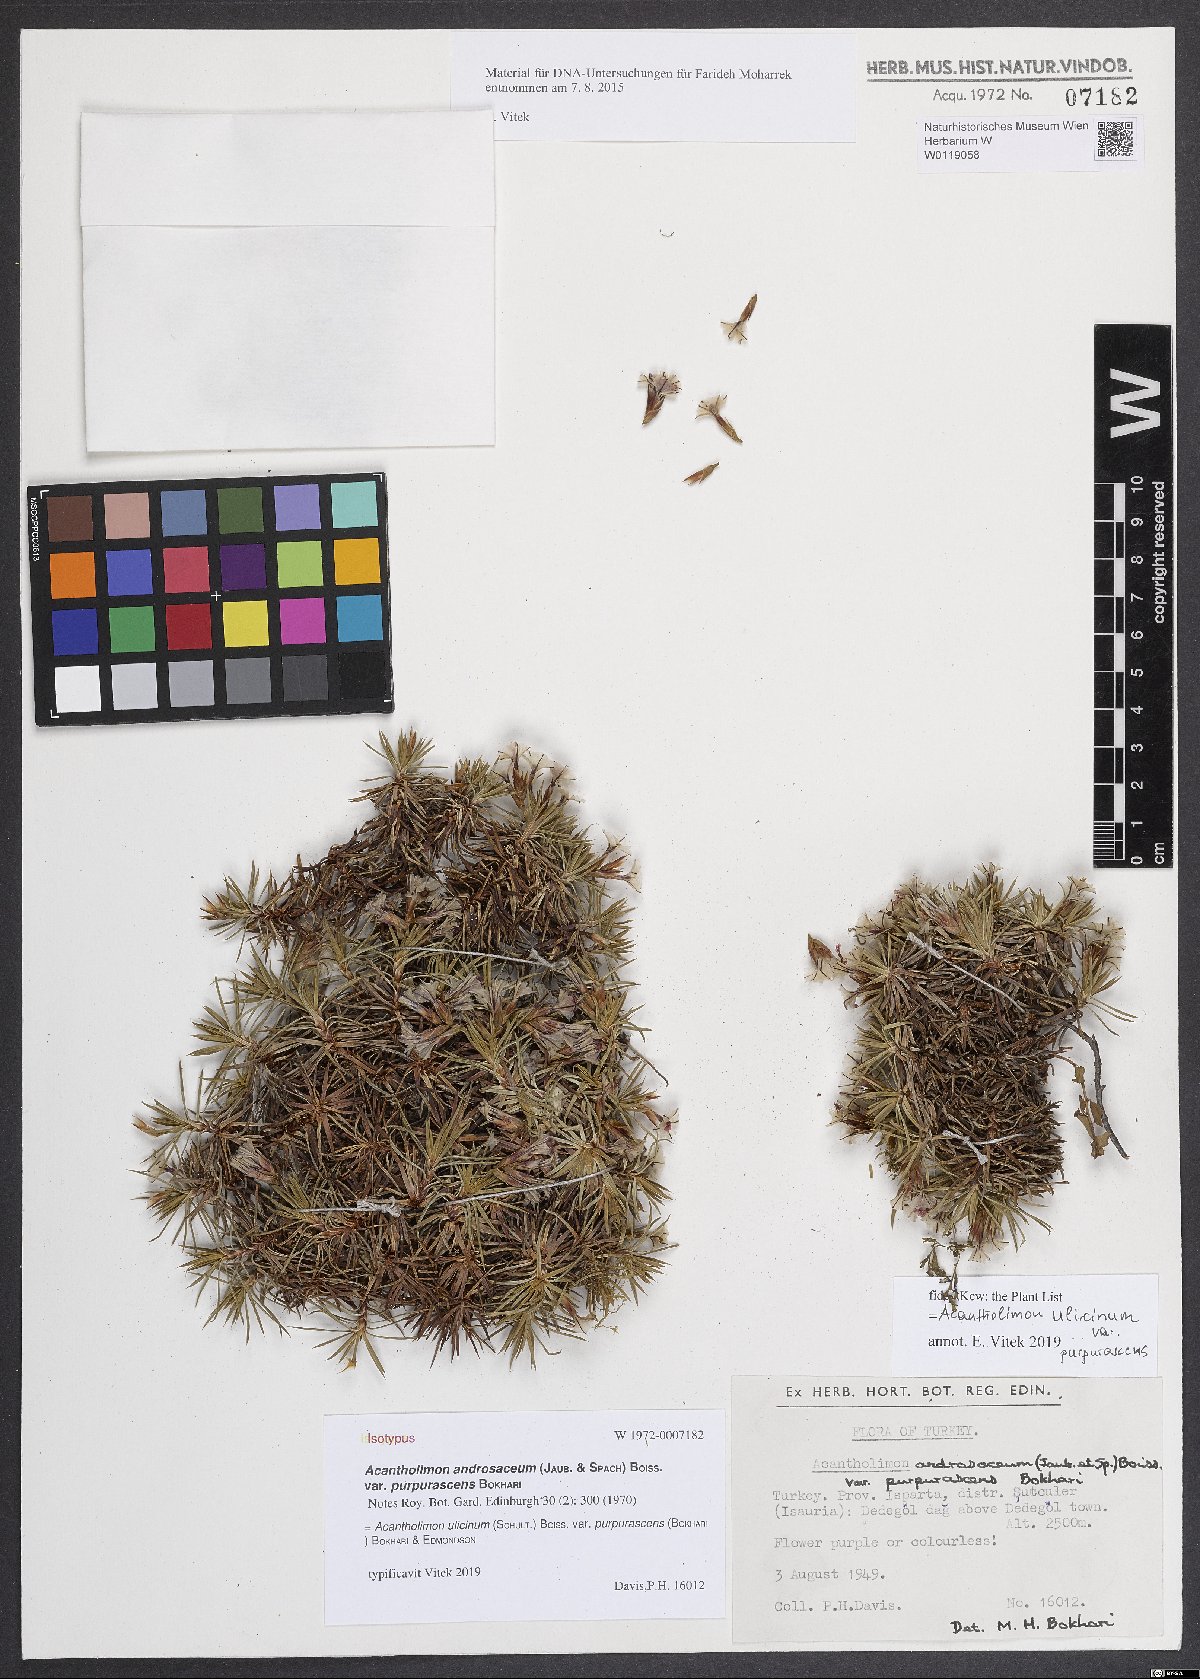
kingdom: Plantae
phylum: Tracheophyta
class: Magnoliopsida
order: Caryophyllales
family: Plumbaginaceae
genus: Acantholimon
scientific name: Acantholimon ulicinum
